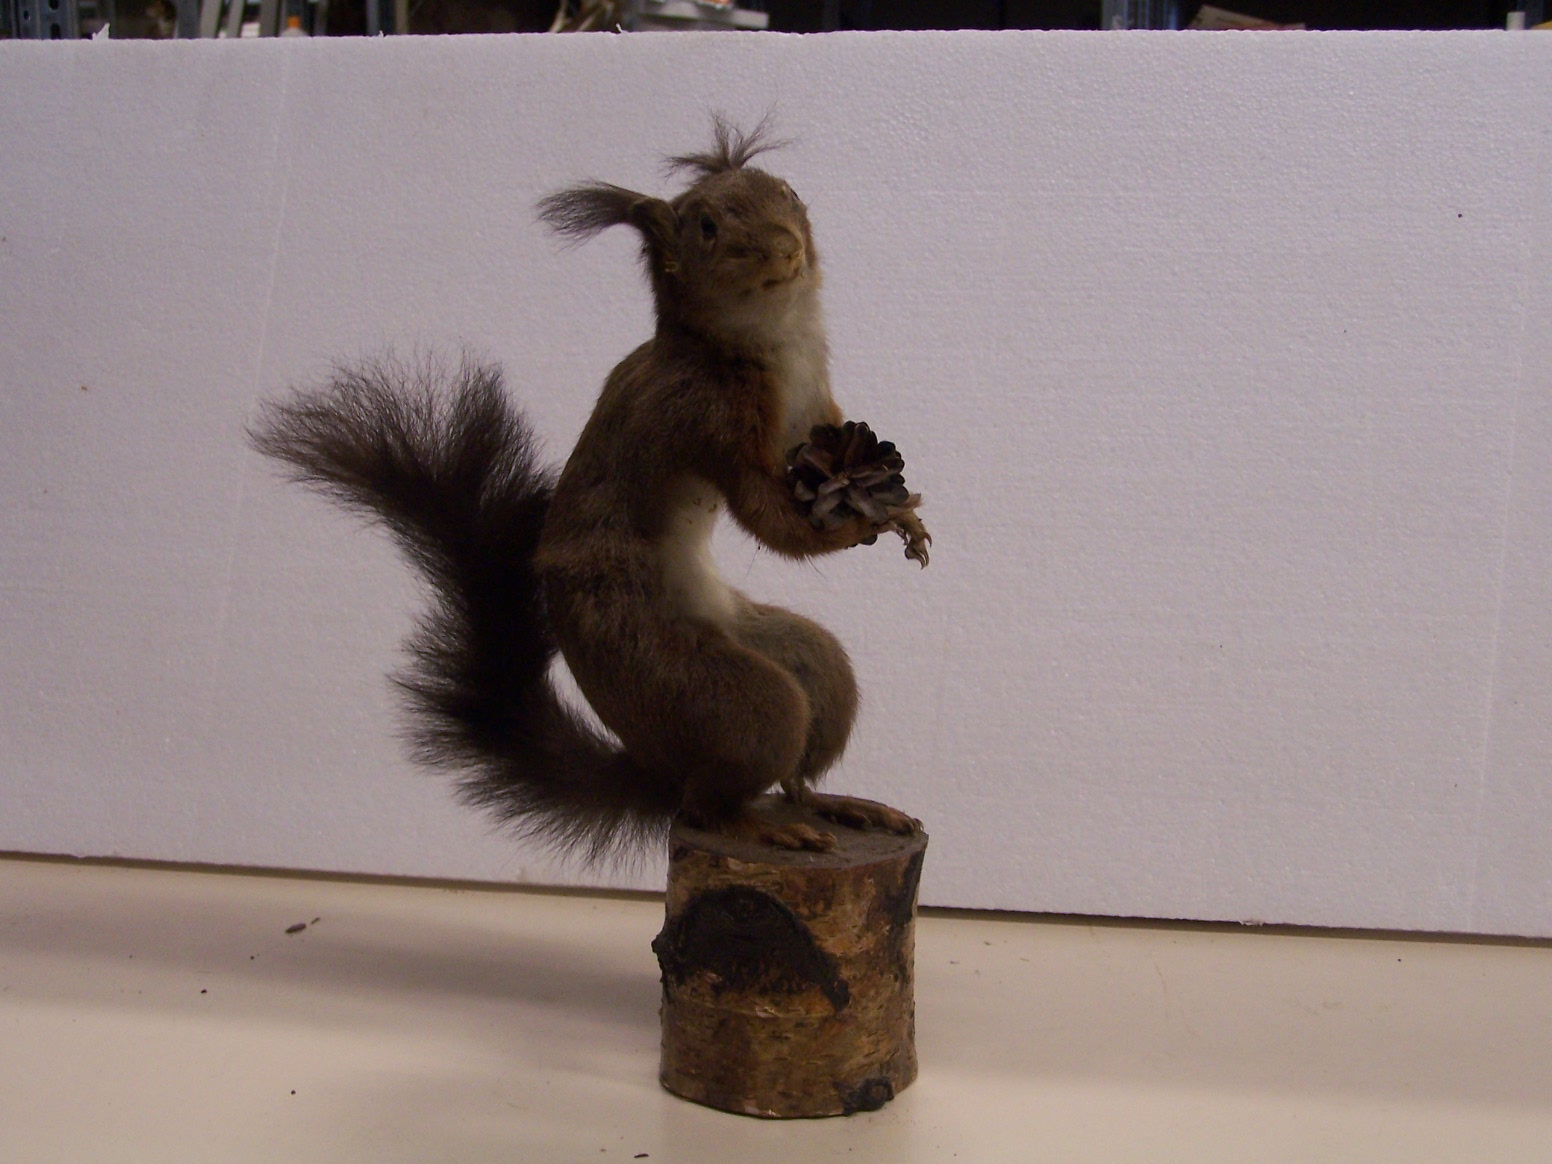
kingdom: Animalia
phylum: Chordata
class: Mammalia
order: Rodentia
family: Sciuridae
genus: Sciurus
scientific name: Sciurus vulgaris
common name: Eurasian red squirrel
